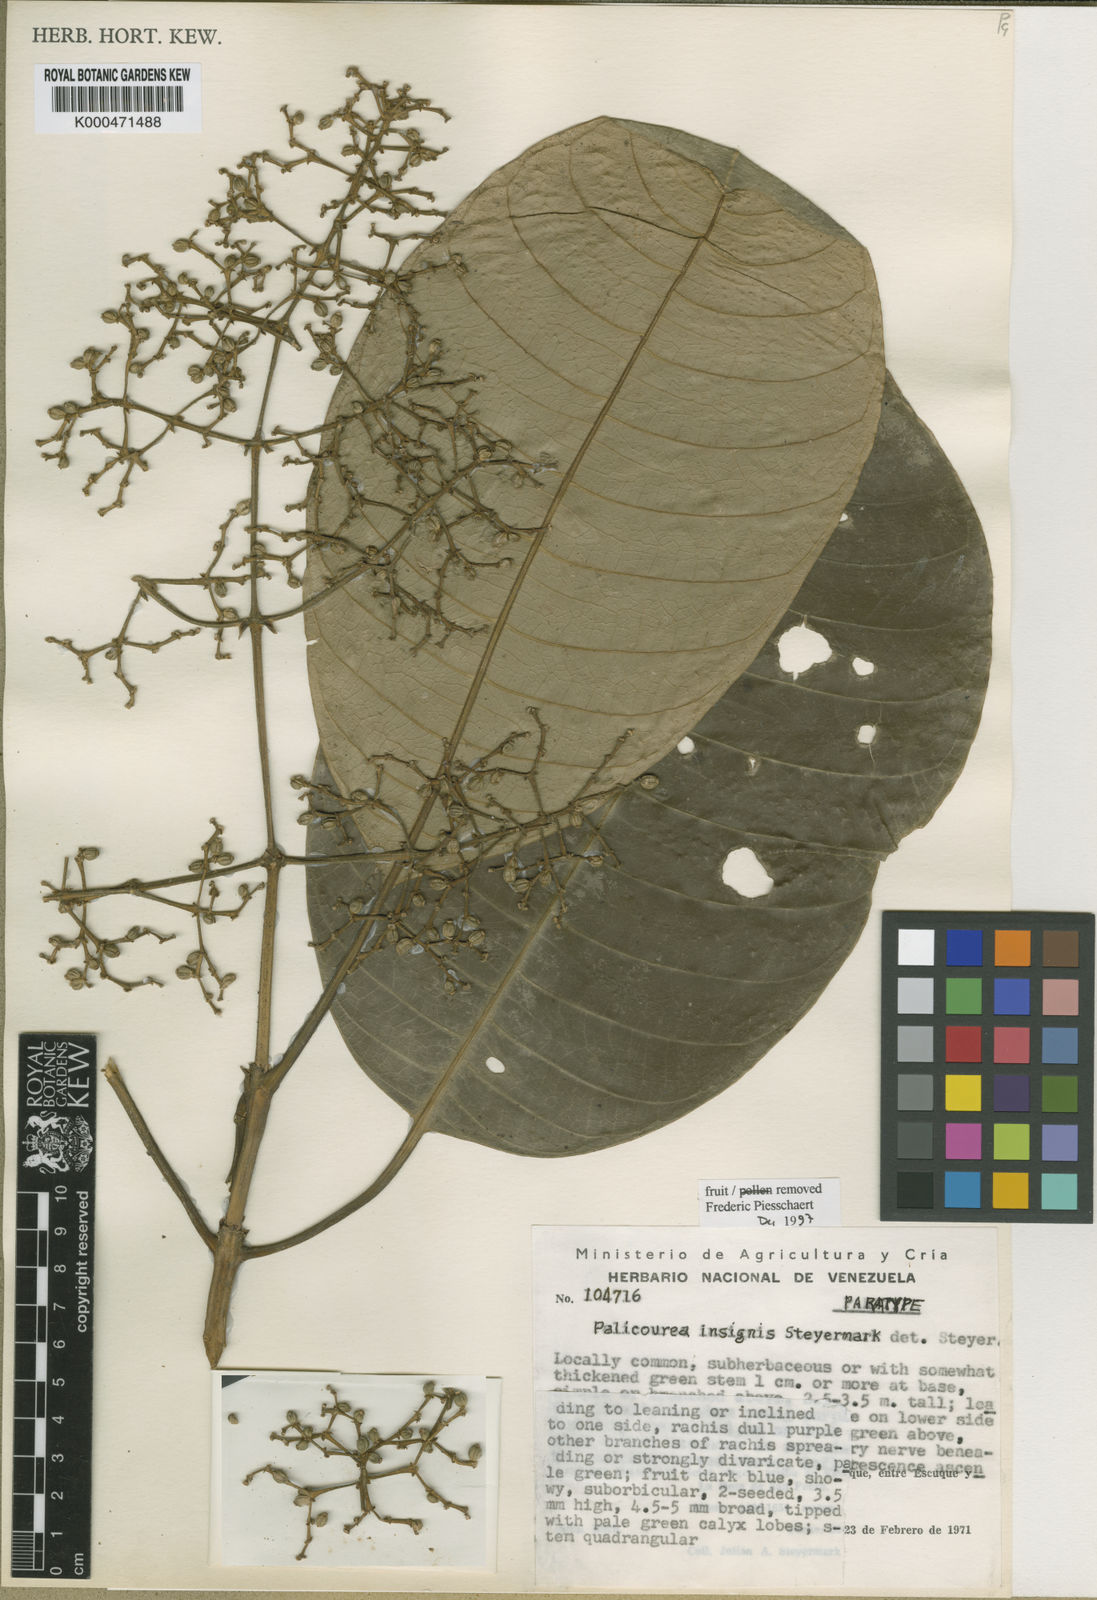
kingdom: Plantae
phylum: Tracheophyta
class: Magnoliopsida
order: Gentianales
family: Rubiaceae
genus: Palicourea
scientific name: Palicourea insignis
